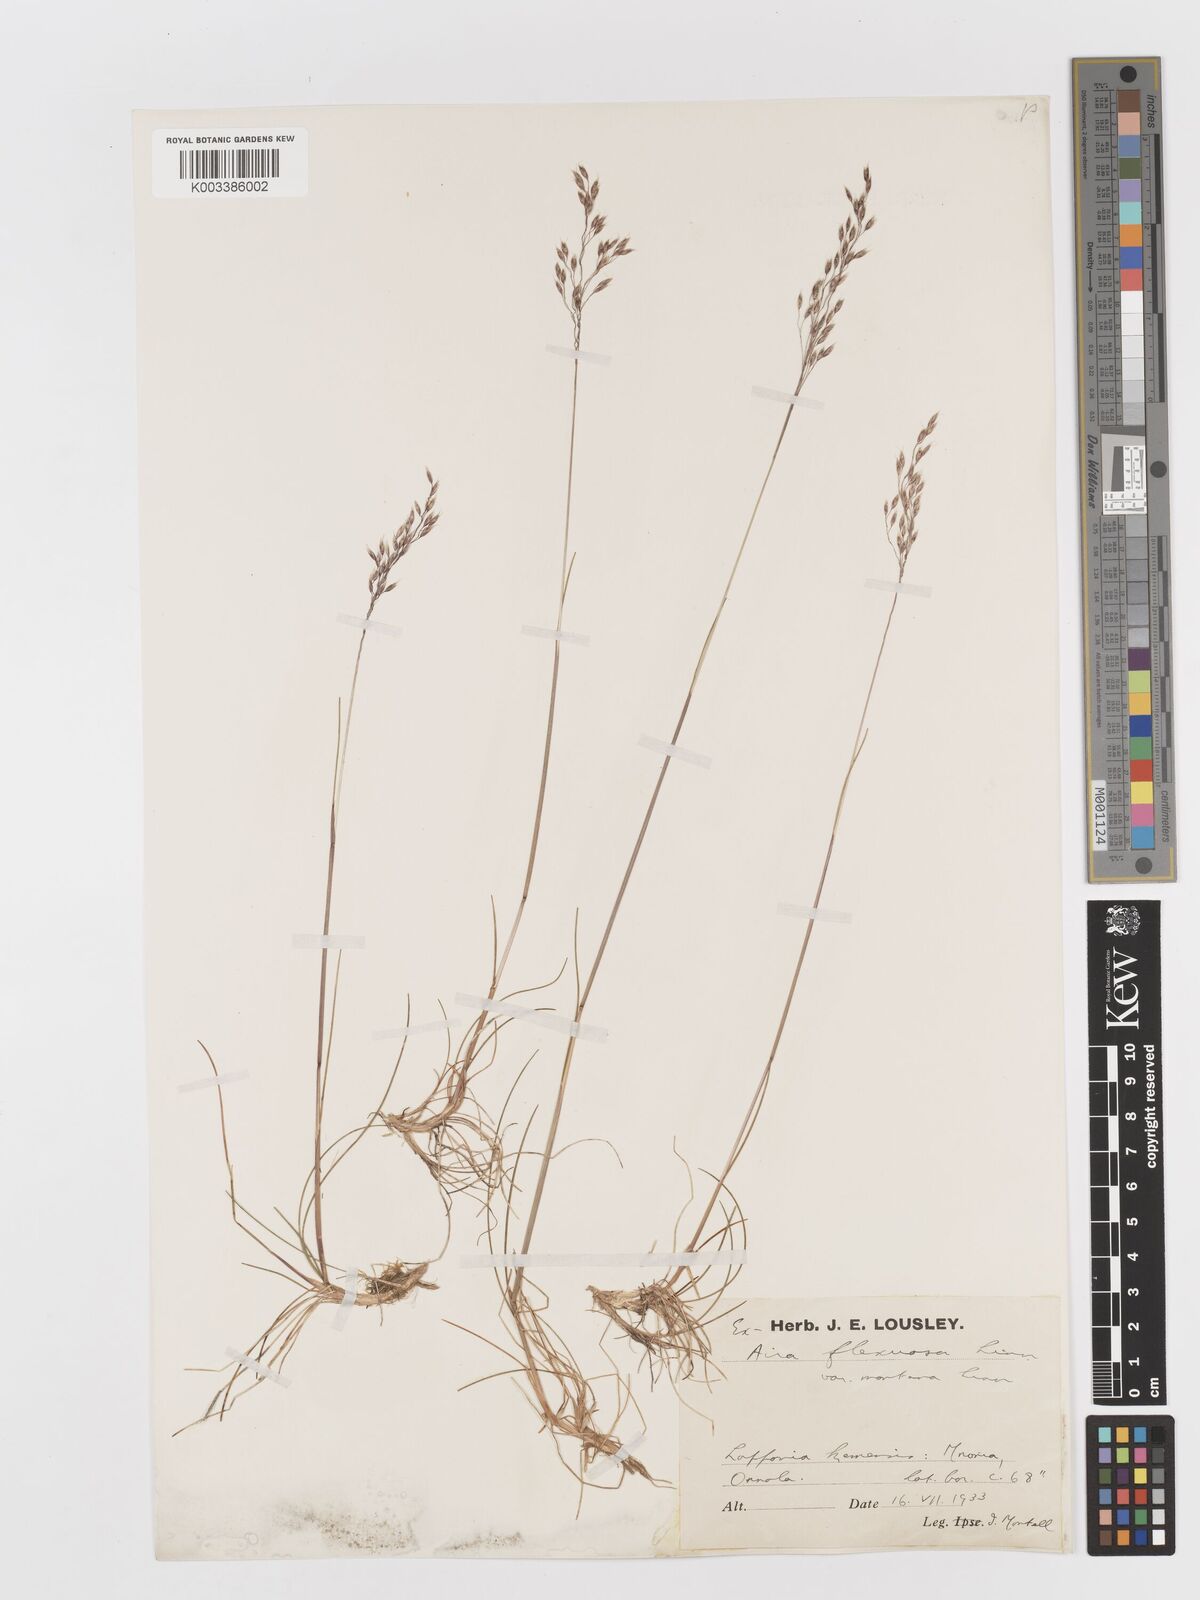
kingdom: Plantae
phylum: Tracheophyta
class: Liliopsida
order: Poales
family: Poaceae
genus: Avenella
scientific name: Avenella flexuosa
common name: Wavy hairgrass
